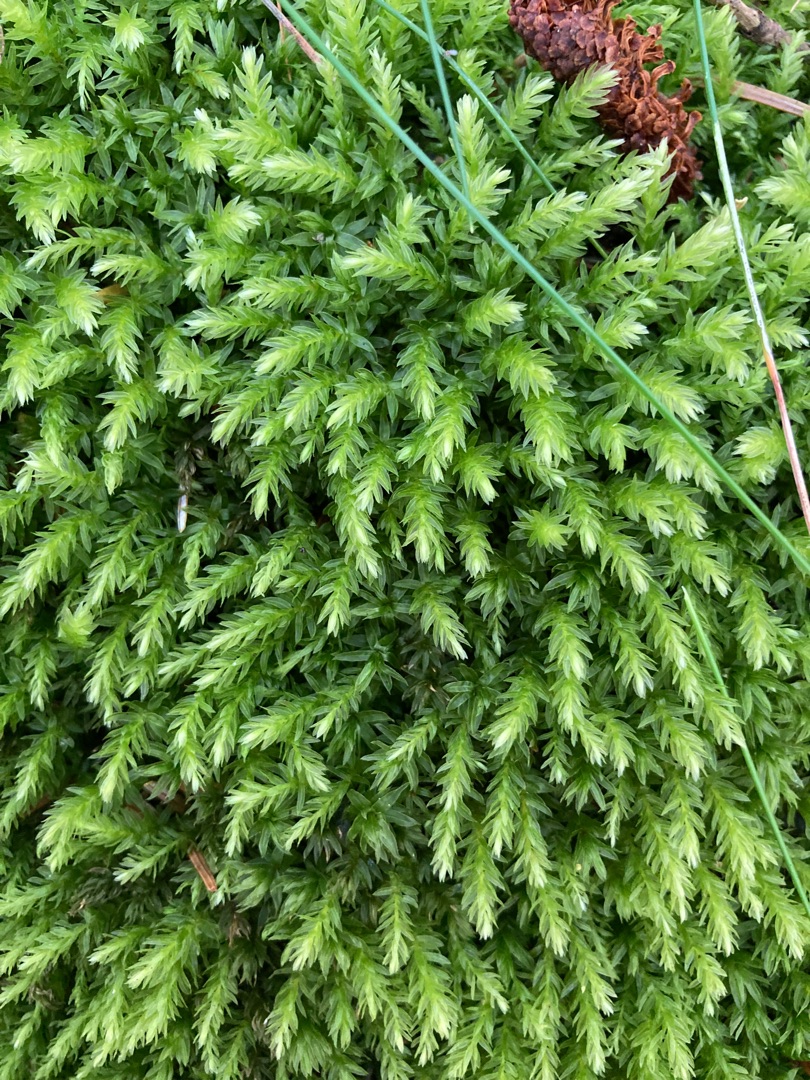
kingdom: Plantae
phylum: Bryophyta
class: Bryopsida
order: Bryales
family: Mniaceae
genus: Mnium
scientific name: Mnium hornum
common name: Brunfiltet stjernemos
